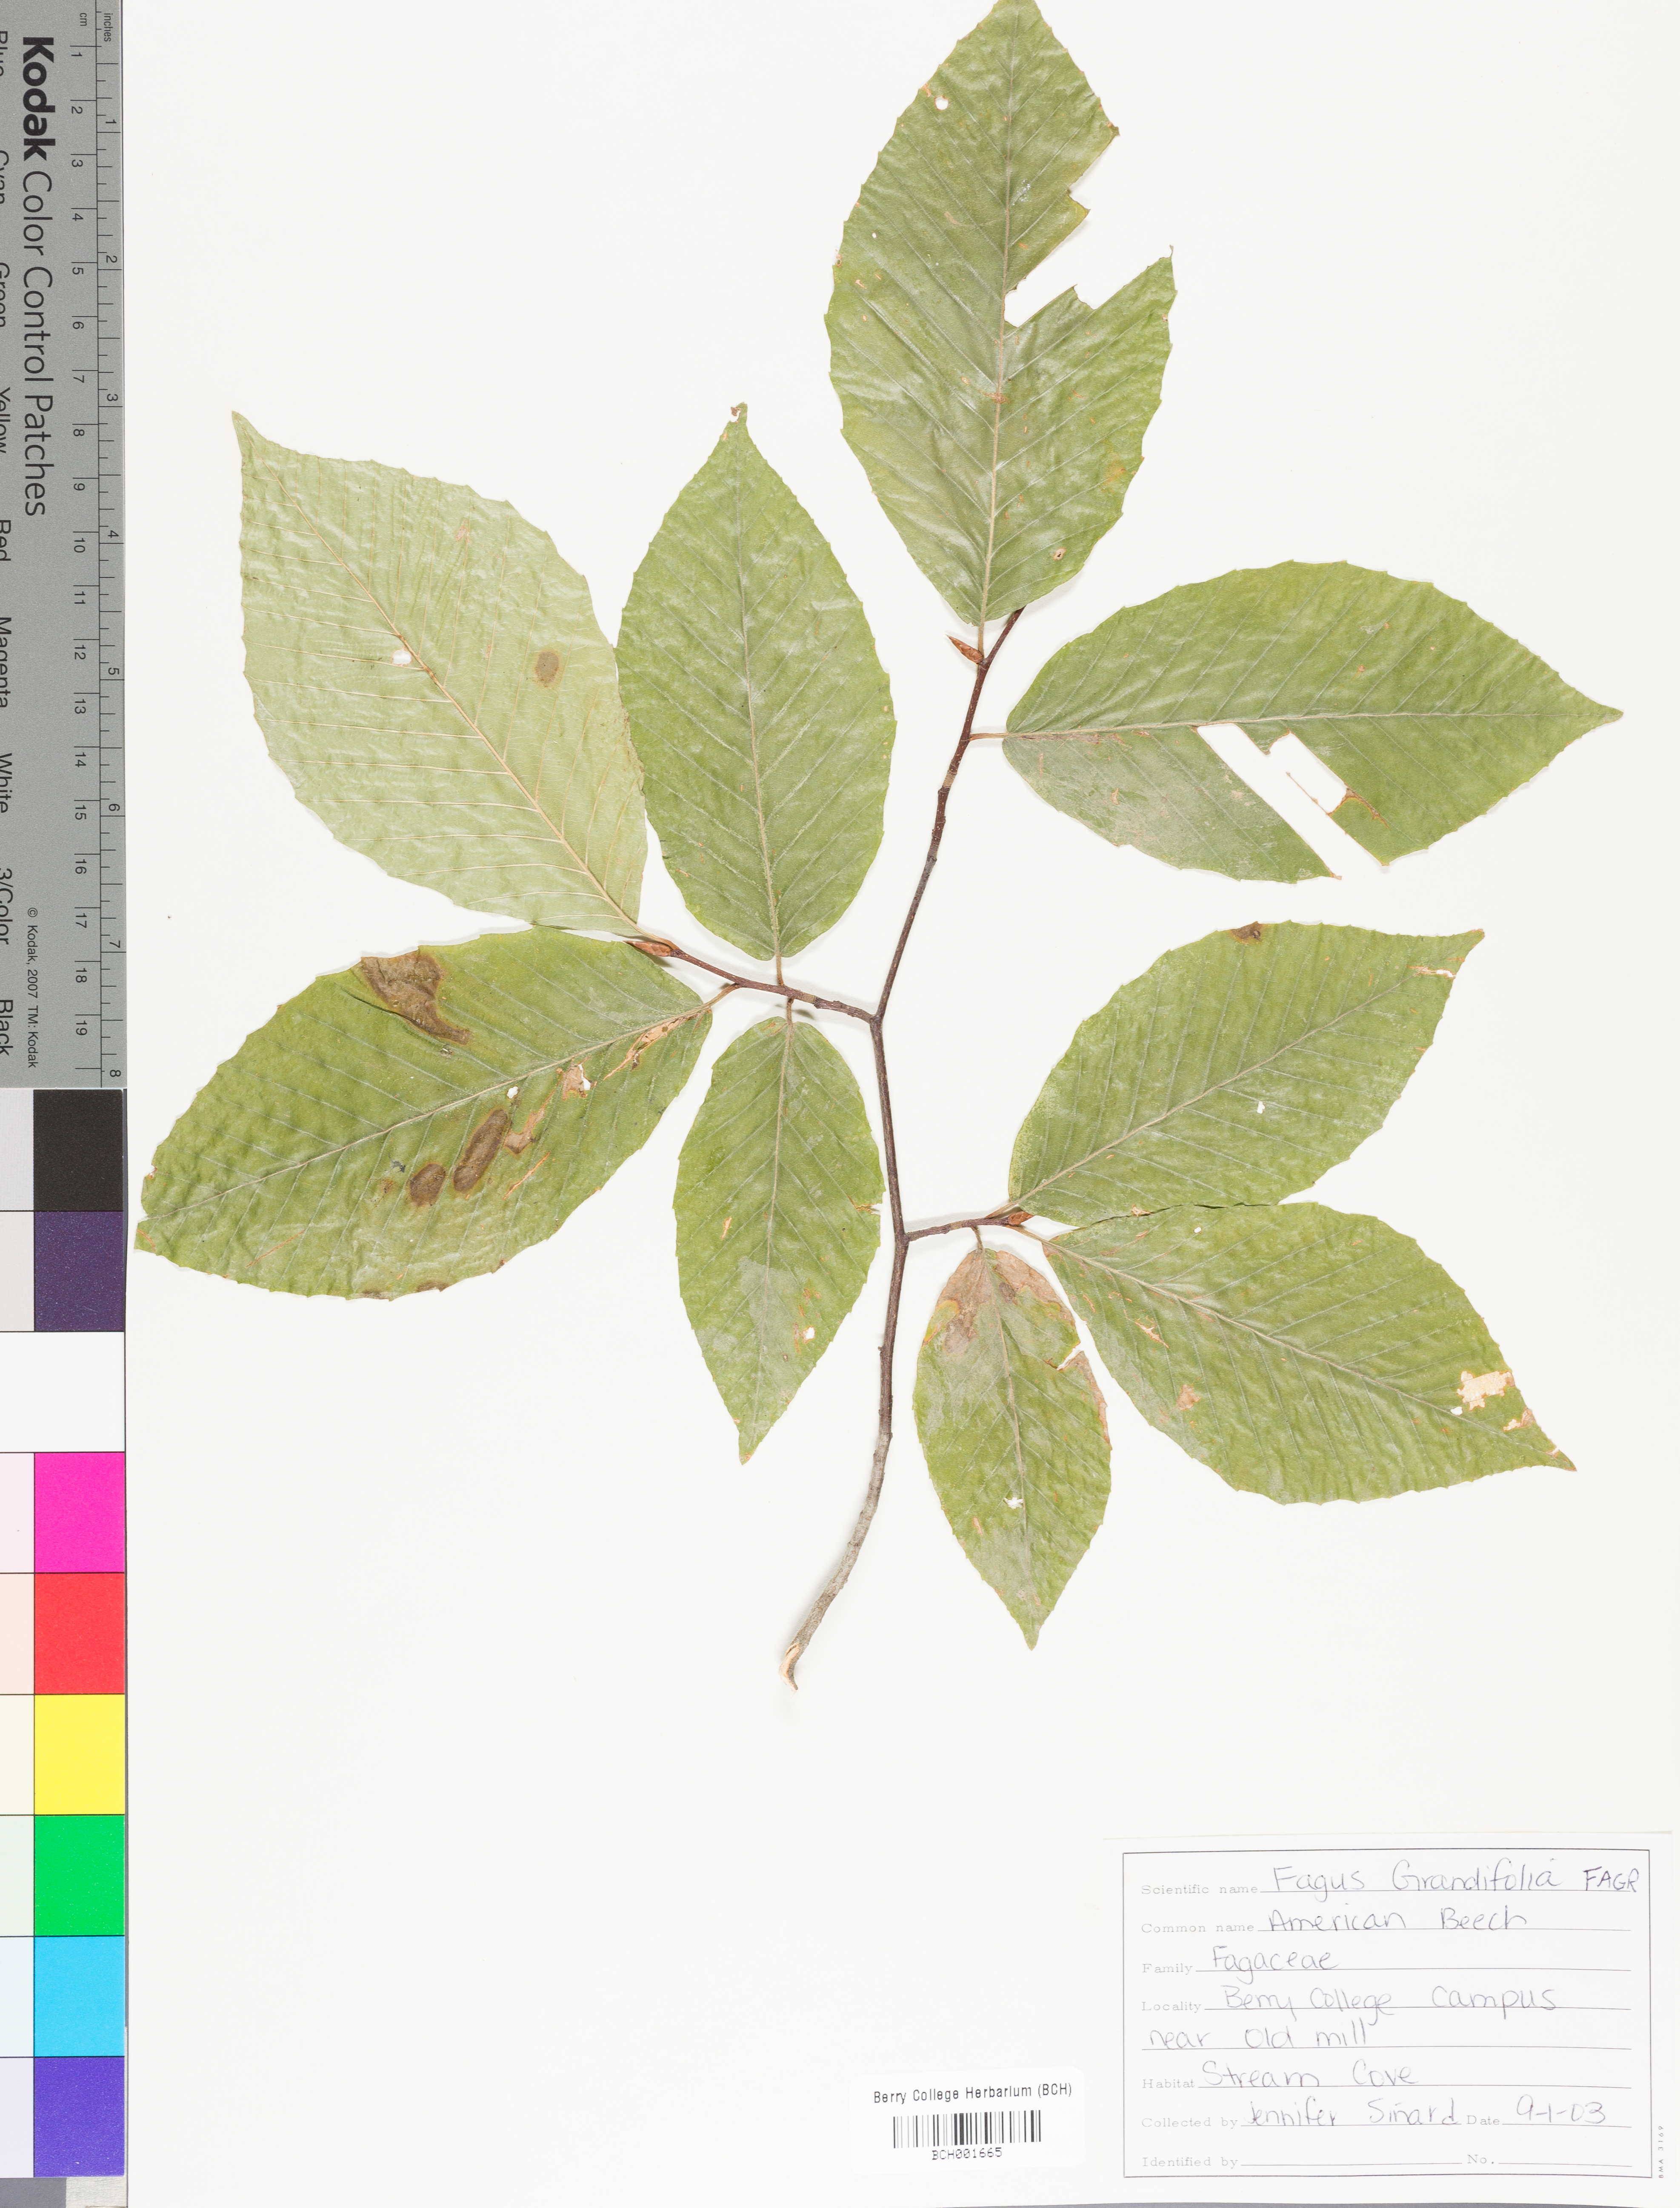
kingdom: Plantae
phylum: Tracheophyta
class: Magnoliopsida
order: Fagales
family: Fagaceae
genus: Fagus
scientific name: Fagus grandifolia
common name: American beech
